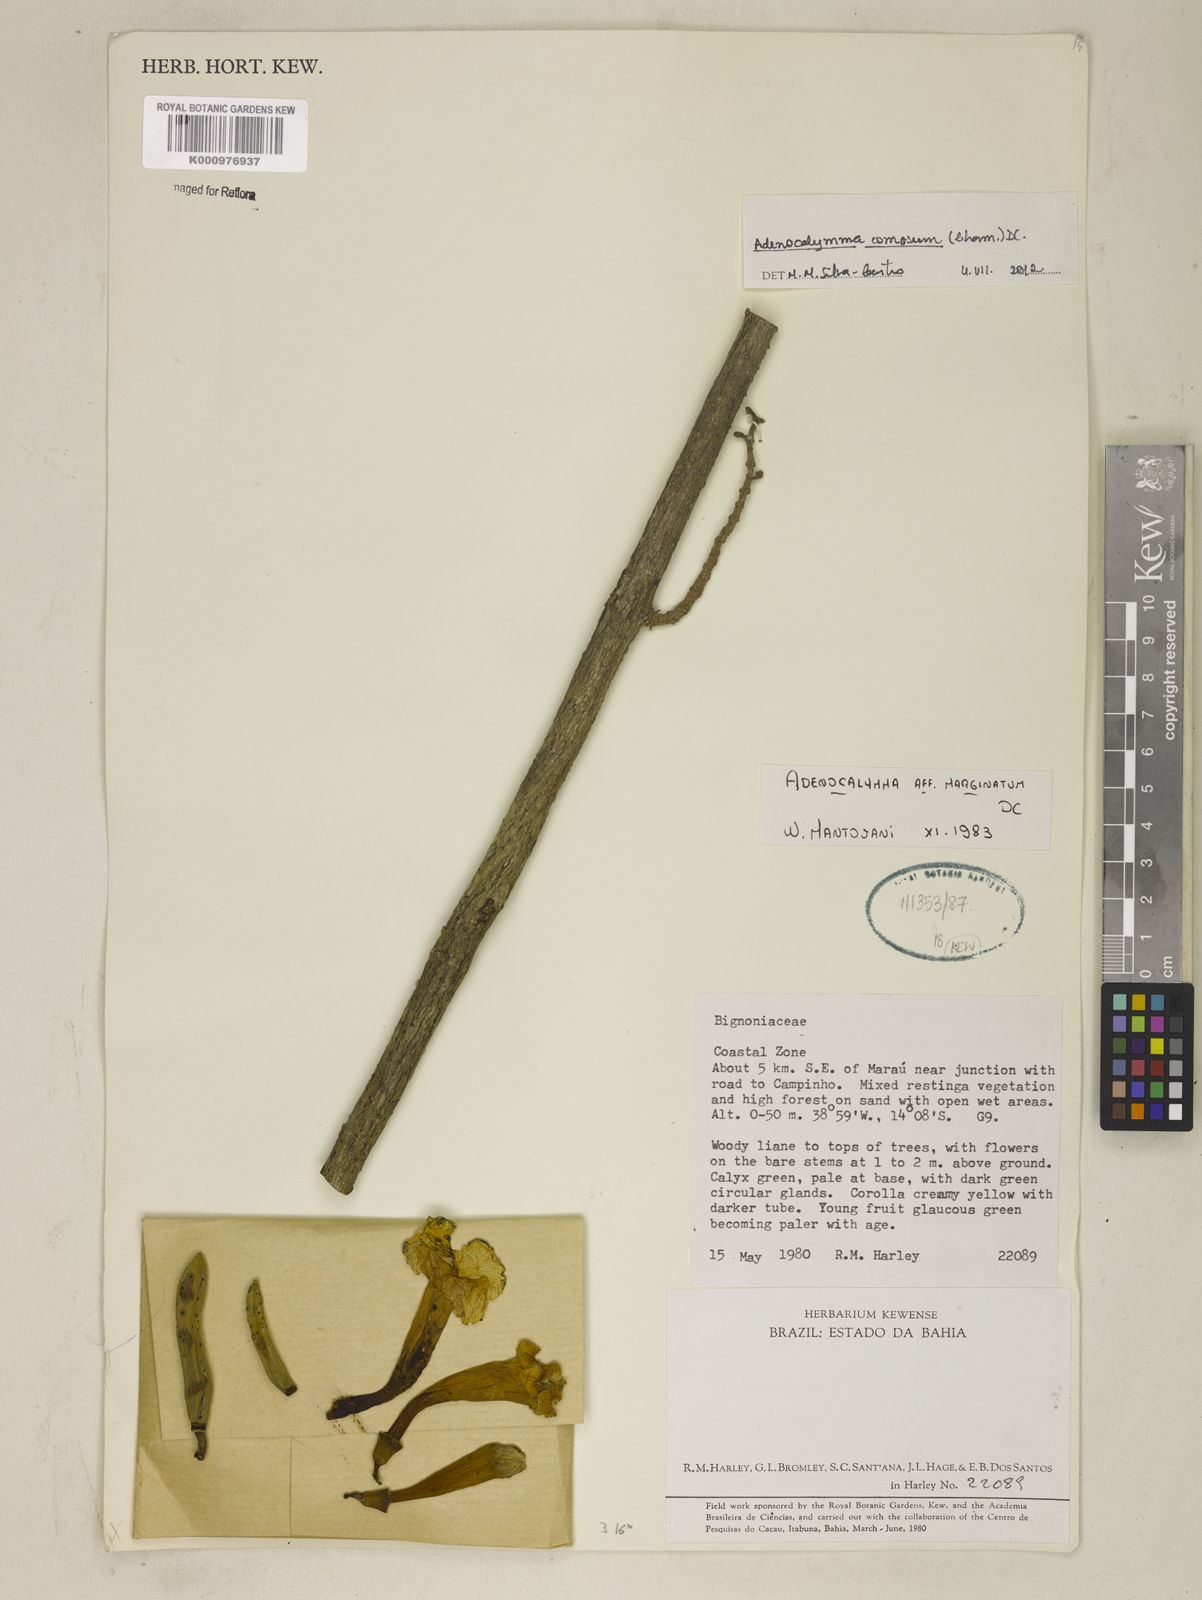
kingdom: Plantae
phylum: Tracheophyta
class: Magnoliopsida
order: Lamiales
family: Bignoniaceae
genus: Adenocalymma
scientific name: Adenocalymma acutissimum
